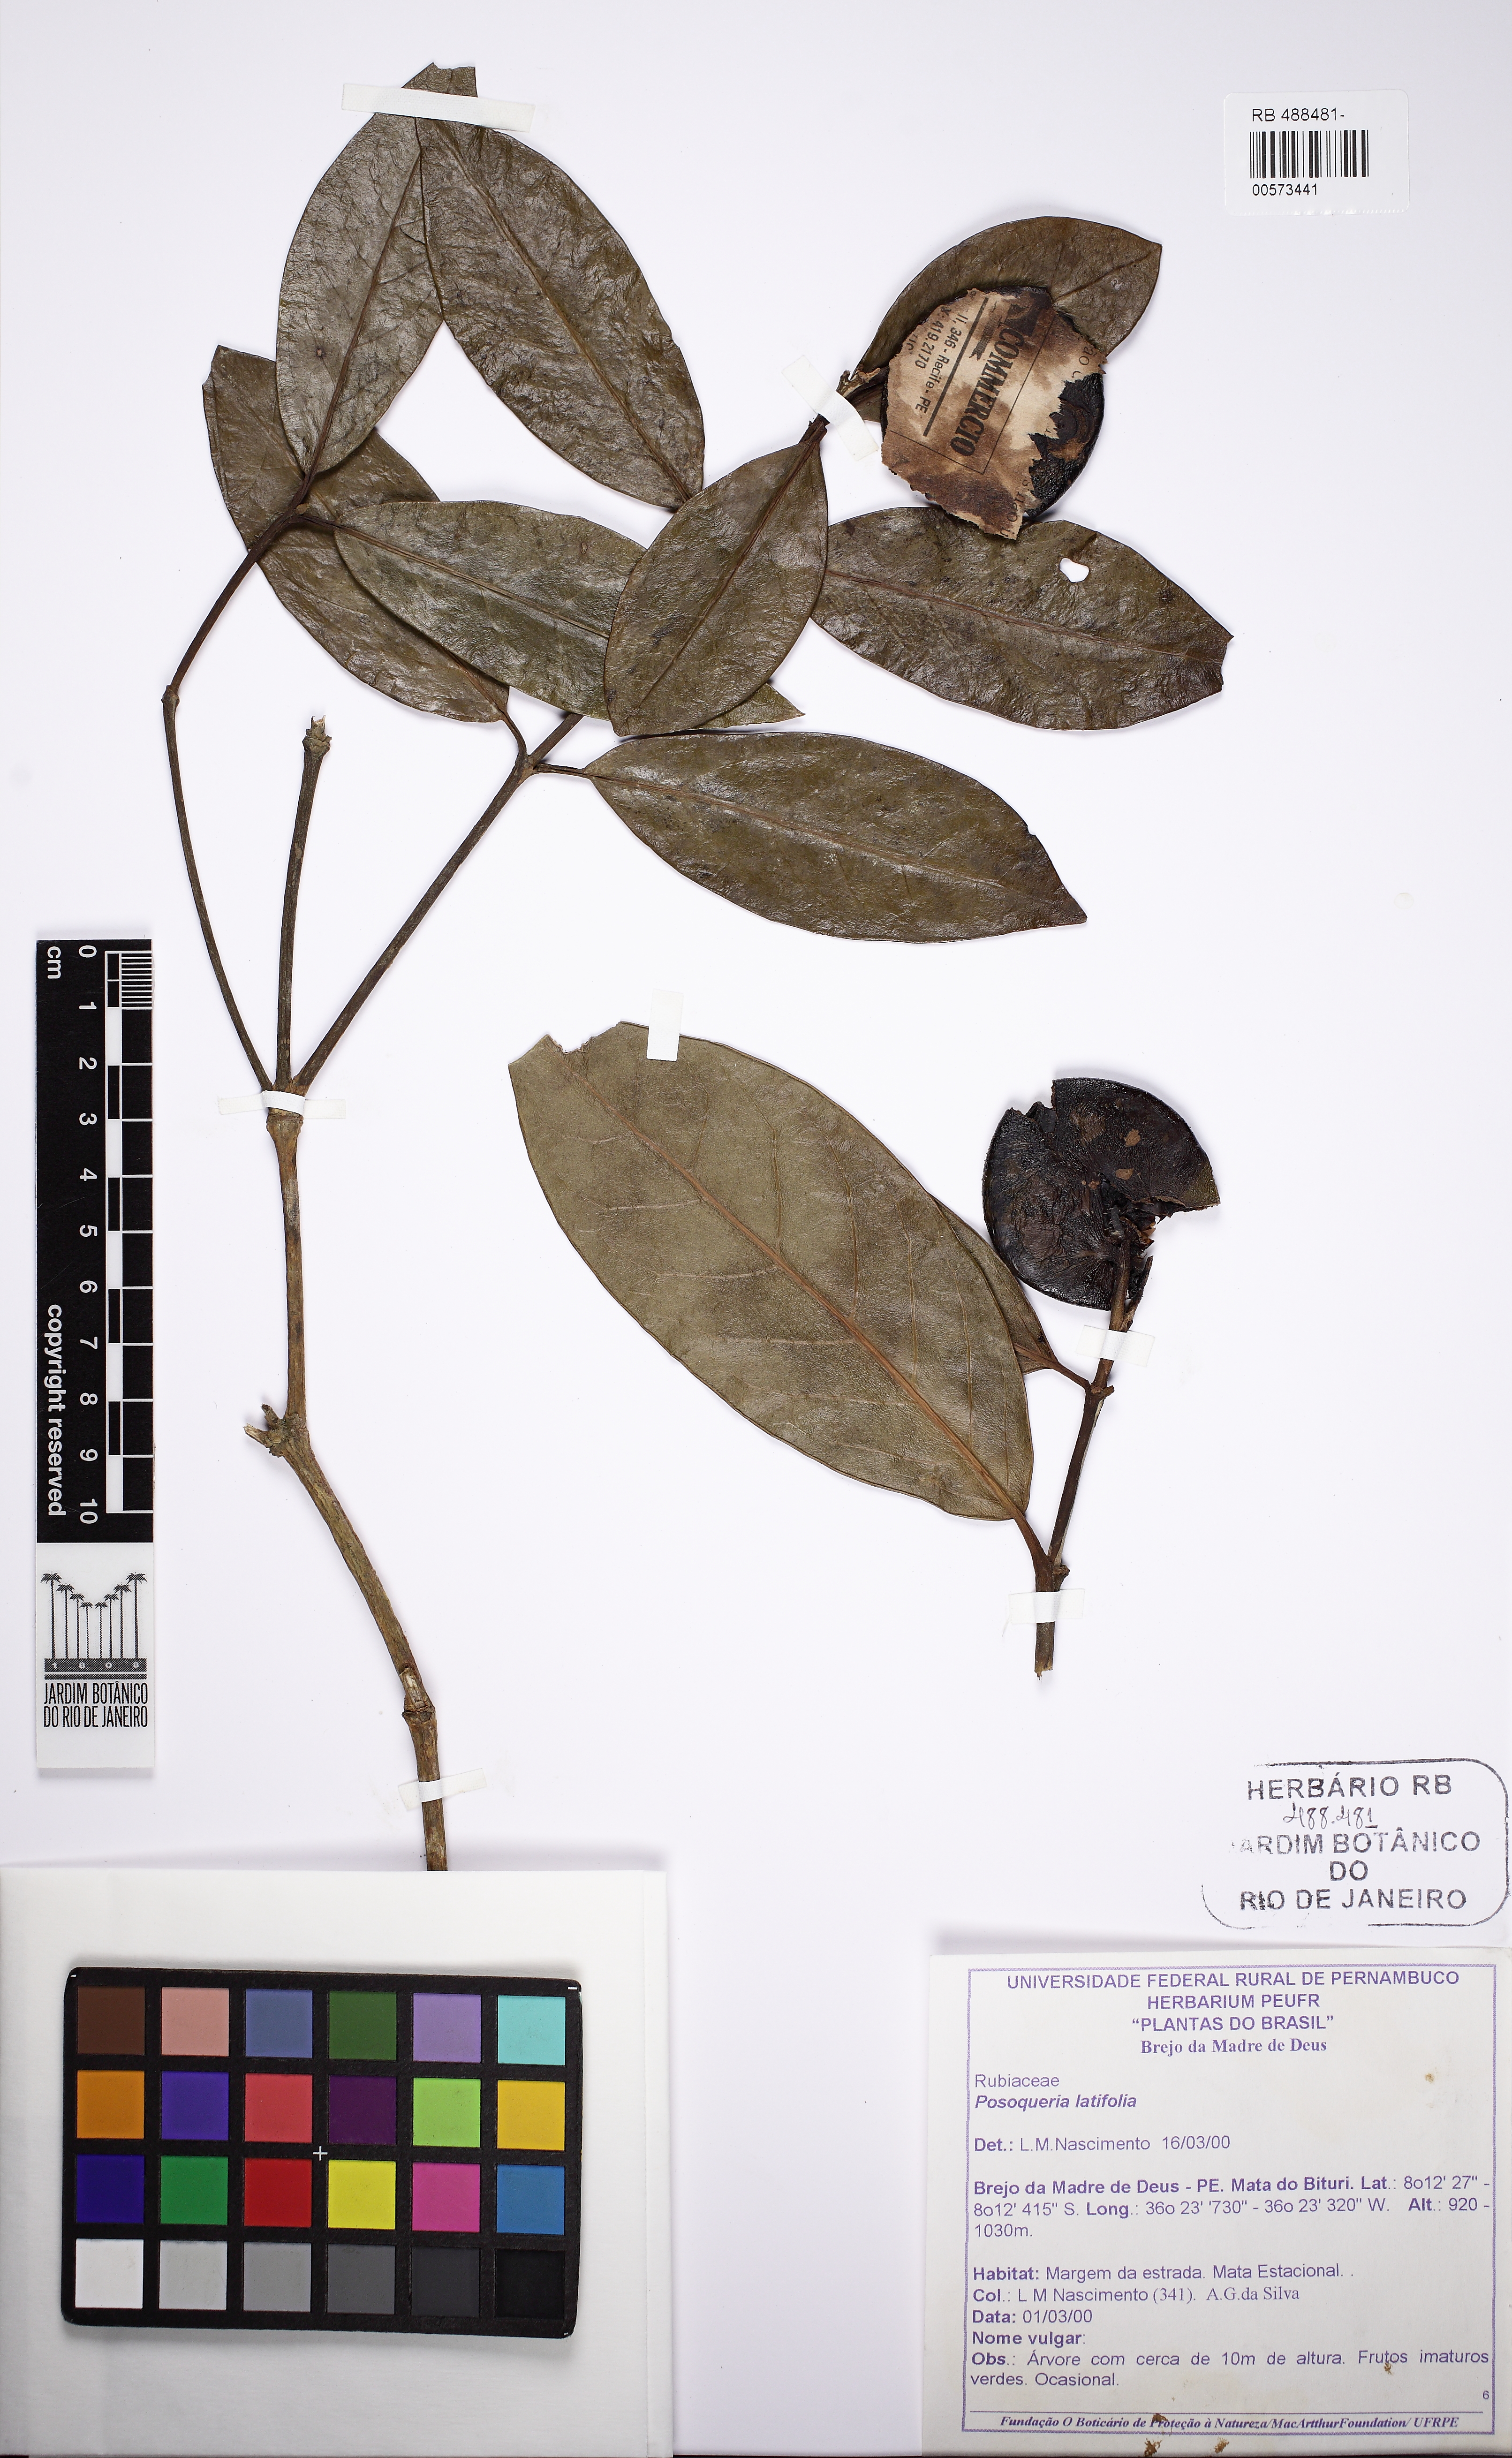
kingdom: Plantae
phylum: Tracheophyta
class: Magnoliopsida
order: Gentianales
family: Rubiaceae
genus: Posoqueria
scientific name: Posoqueria latifolia
